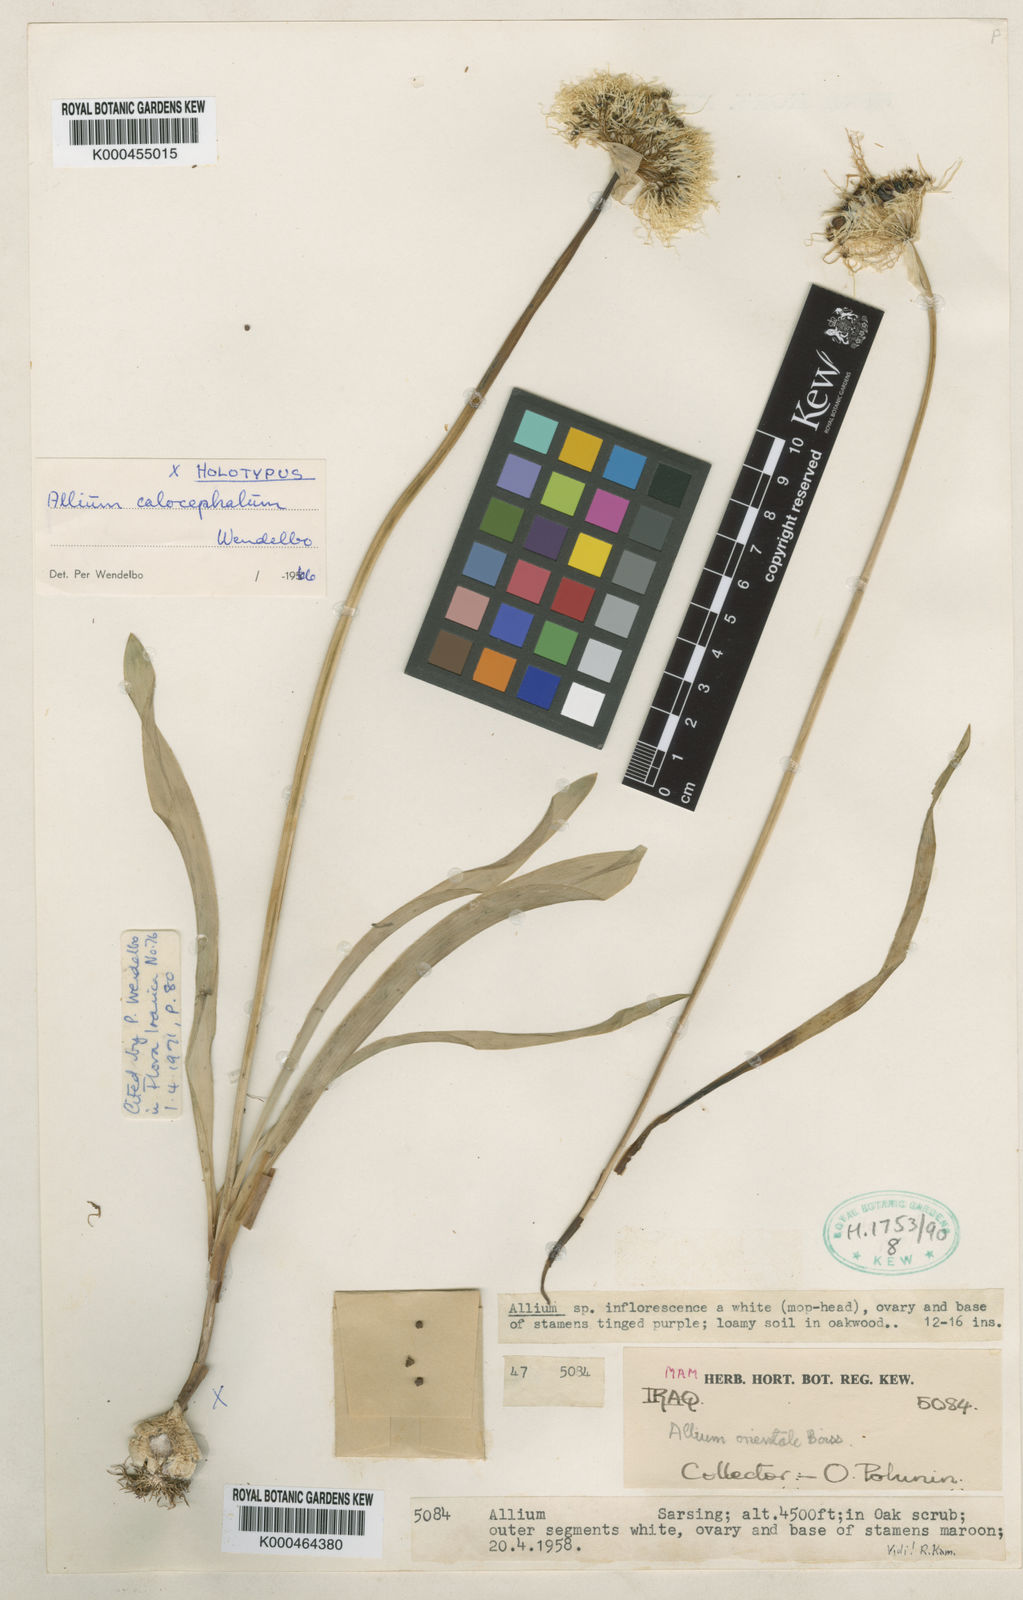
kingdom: Plantae
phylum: Tracheophyta
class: Liliopsida
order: Asparagales
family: Amaryllidaceae
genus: Allium
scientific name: Allium calocephalum
